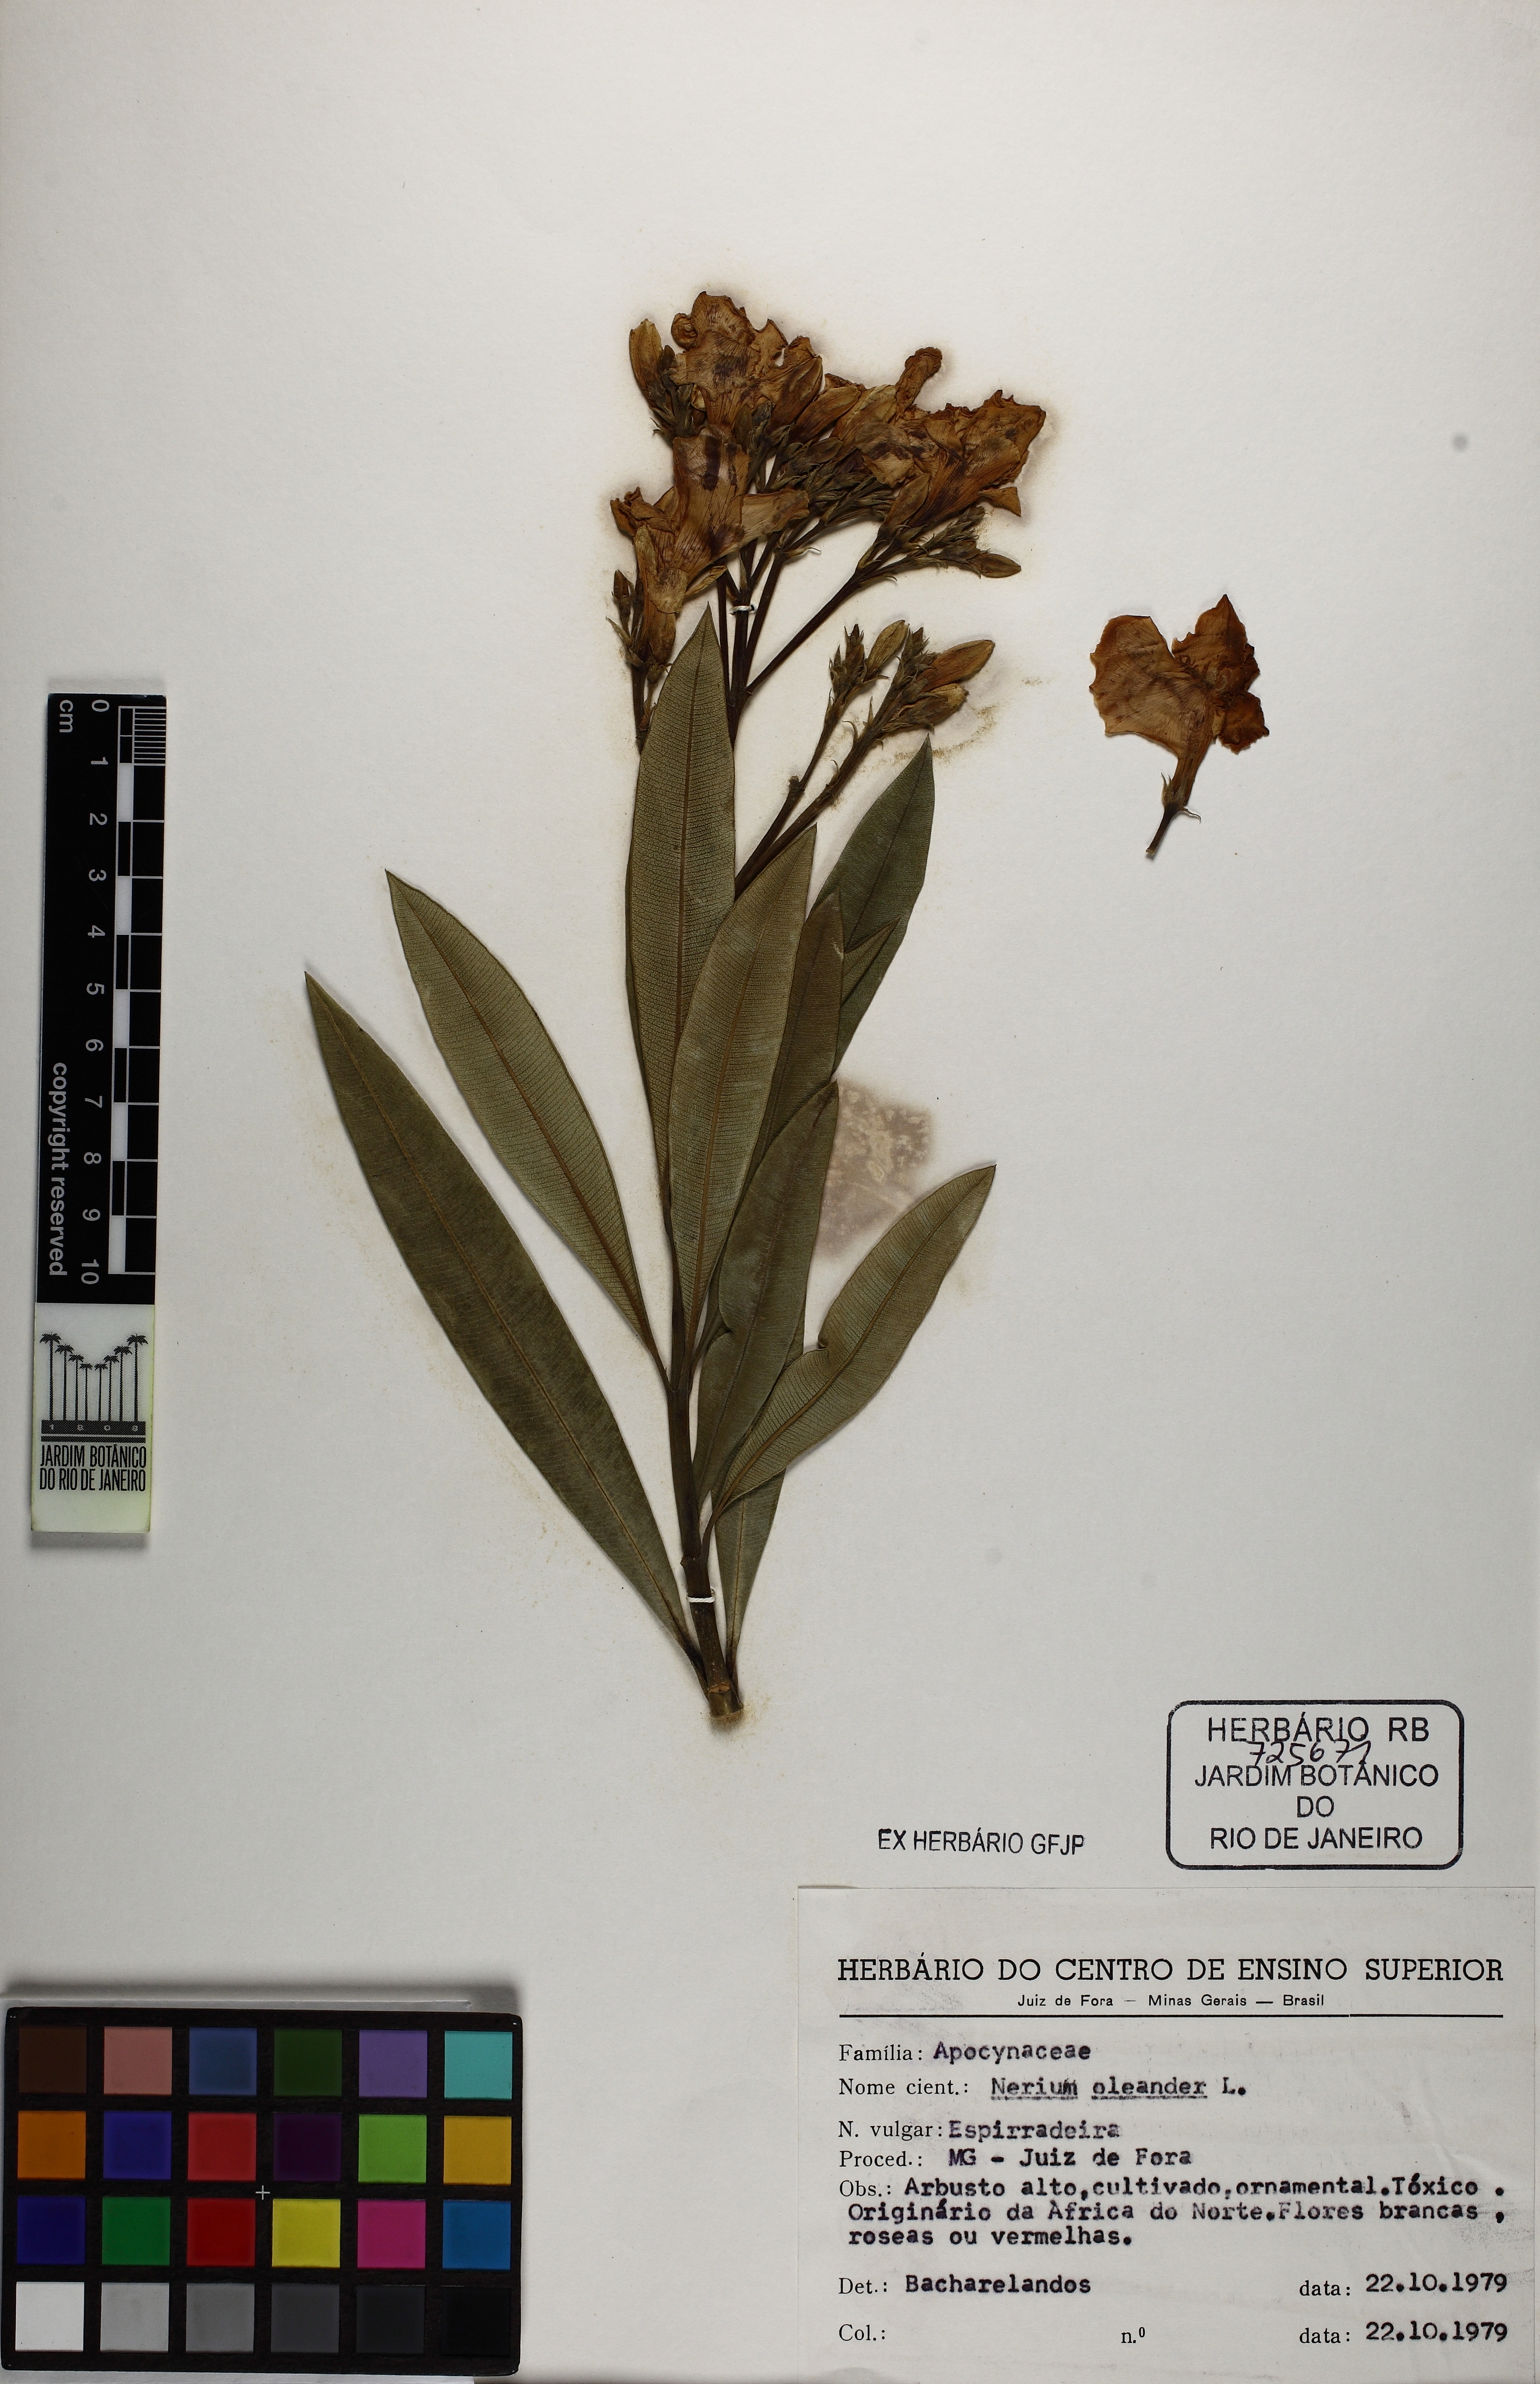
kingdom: Plantae
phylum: Tracheophyta
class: Magnoliopsida
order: Gentianales
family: Apocynaceae
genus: Nerium
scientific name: Nerium oleander
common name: Oleander
